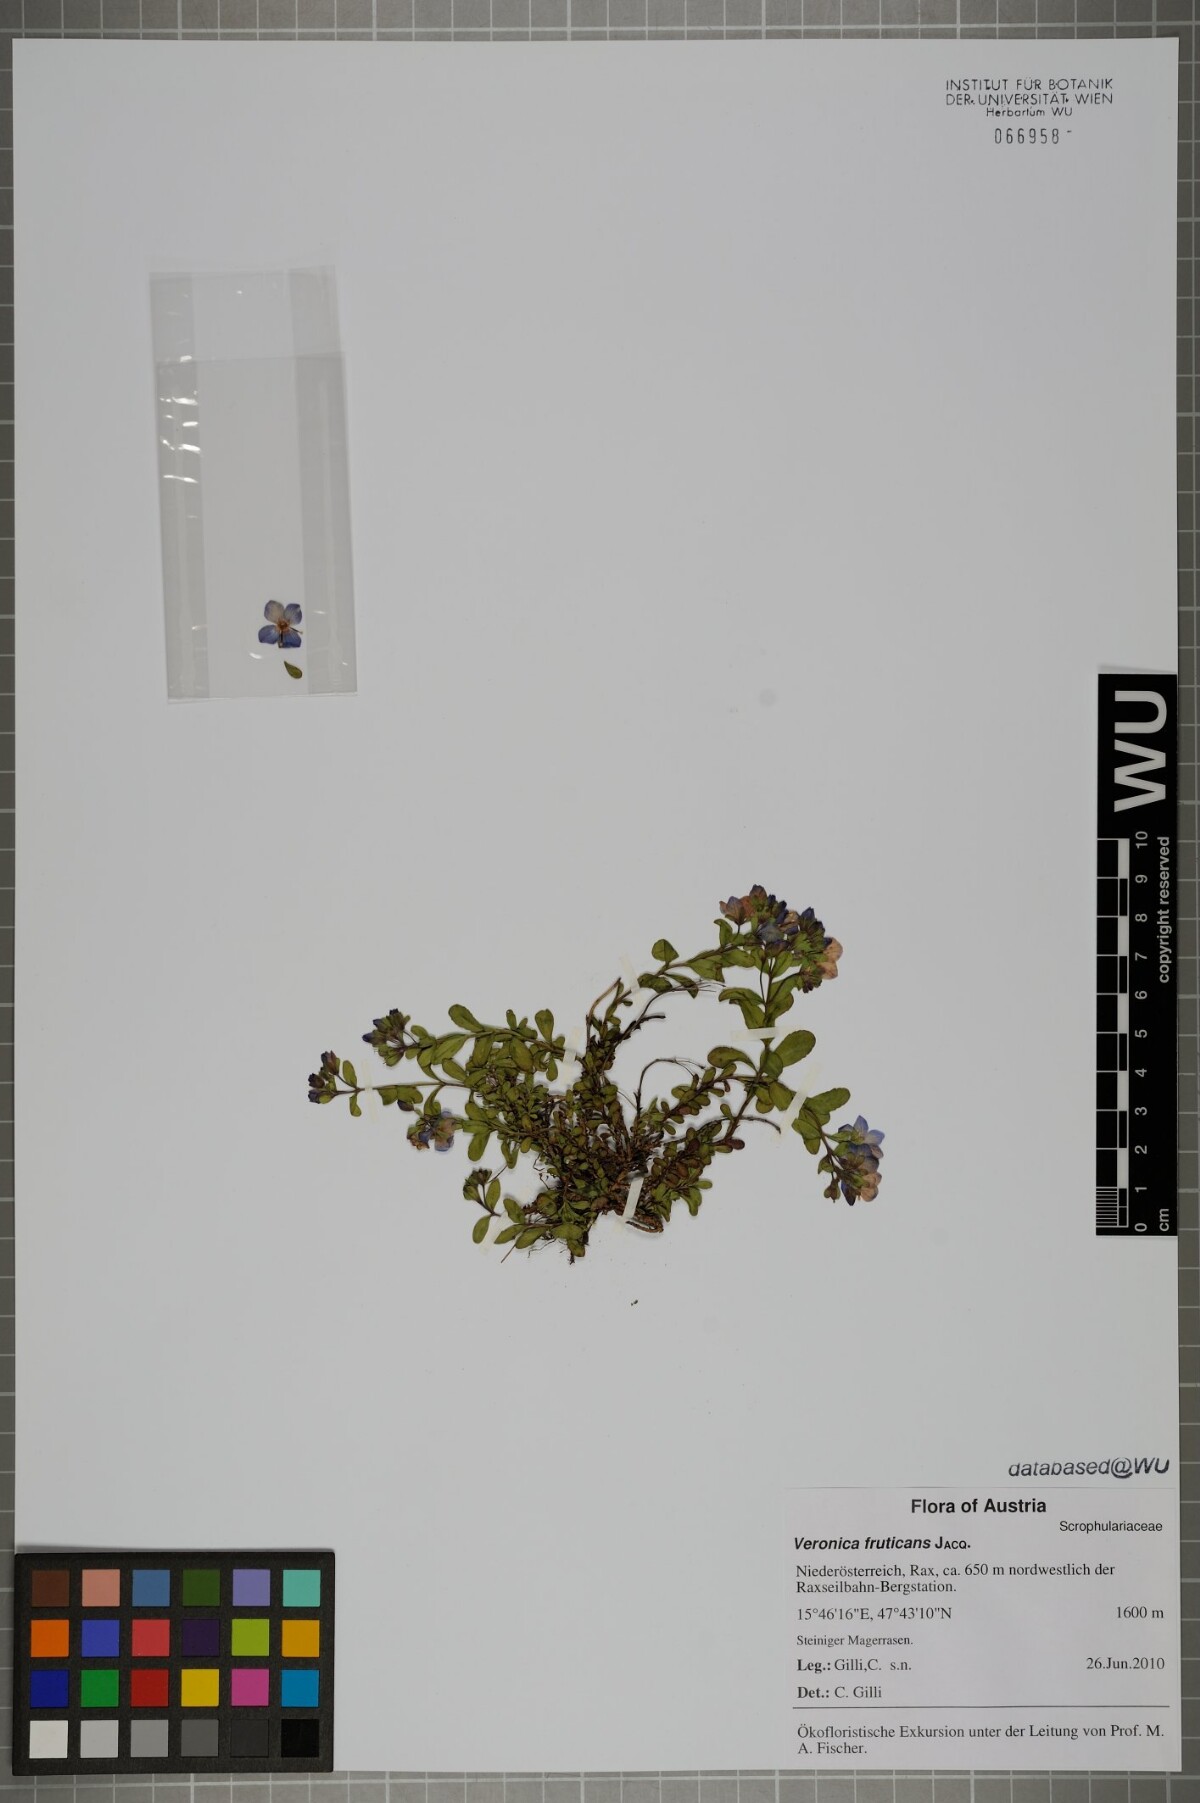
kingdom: Plantae
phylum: Tracheophyta
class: Magnoliopsida
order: Lamiales
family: Plantaginaceae
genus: Veronica
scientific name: Veronica fruticans
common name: Rock speedwell
